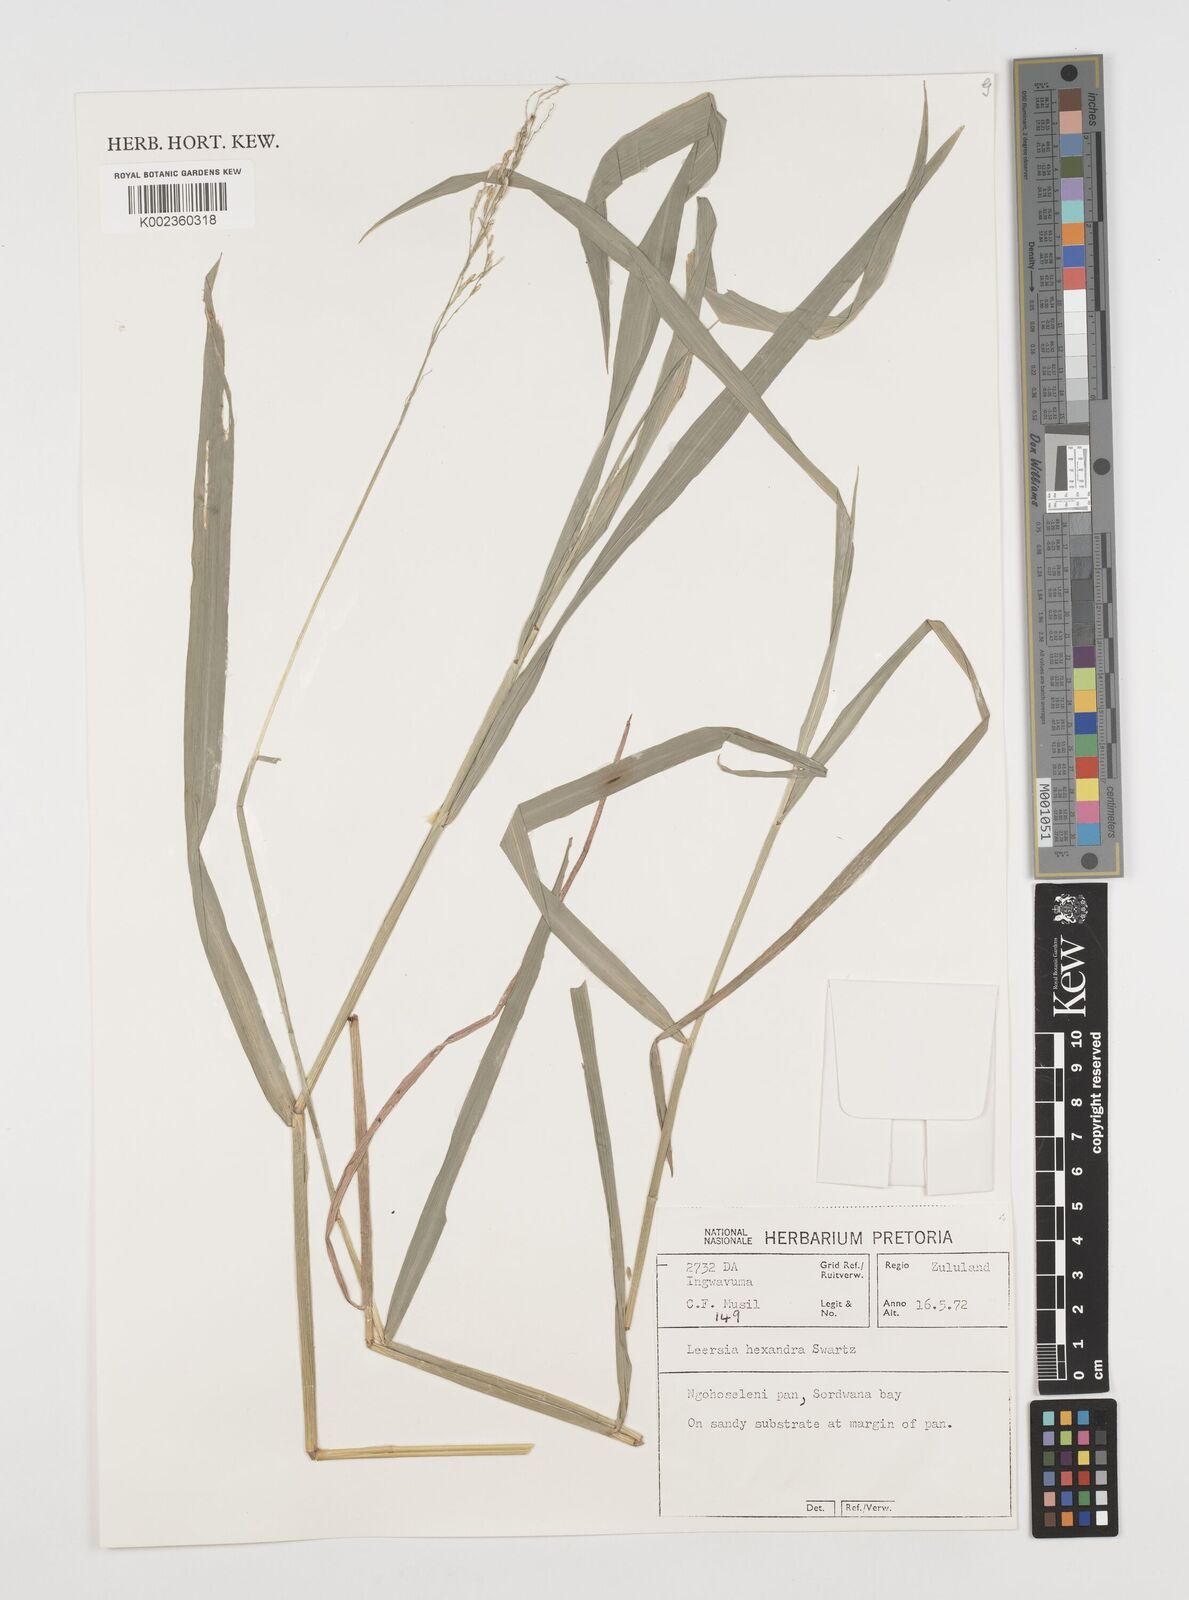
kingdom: Plantae
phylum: Tracheophyta
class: Liliopsida
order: Poales
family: Poaceae
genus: Leersia
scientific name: Leersia hexandra
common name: Southern cut grass
